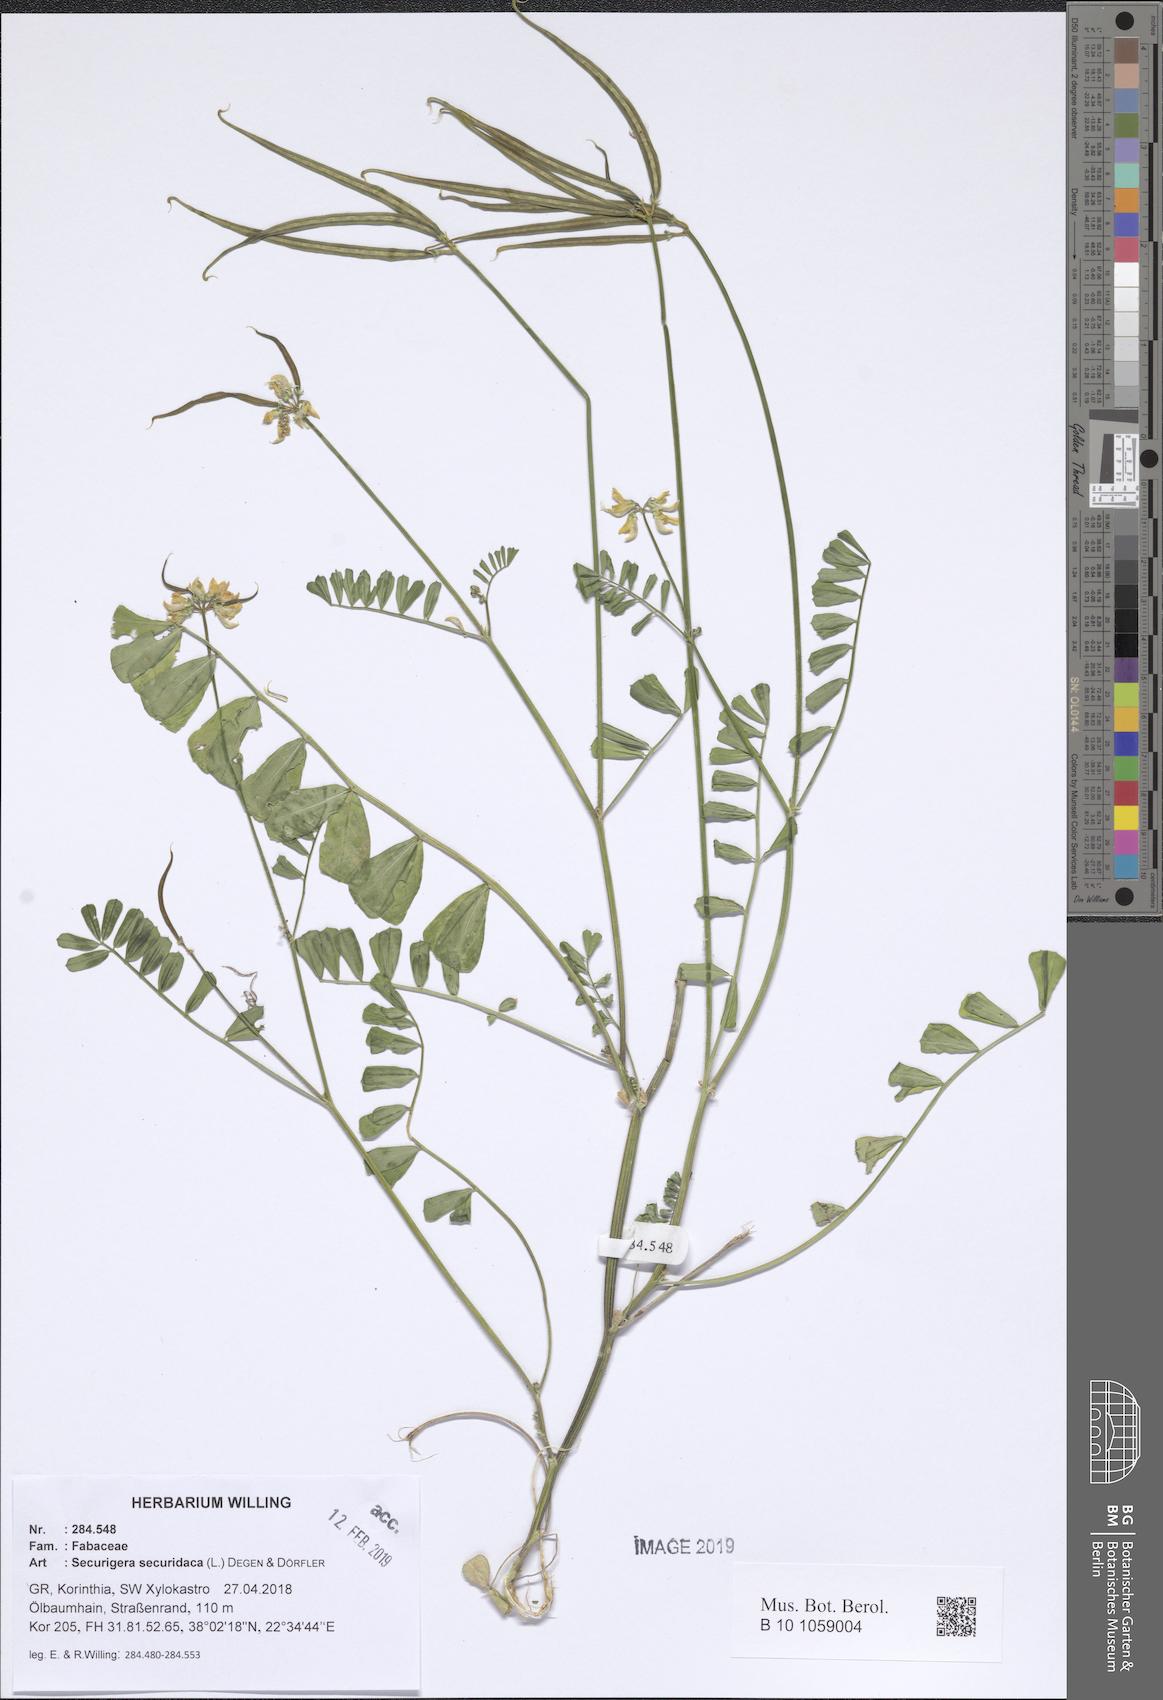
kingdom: Plantae
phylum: Tracheophyta
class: Magnoliopsida
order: Fabales
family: Fabaceae
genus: Coronilla
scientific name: Coronilla securidaca
